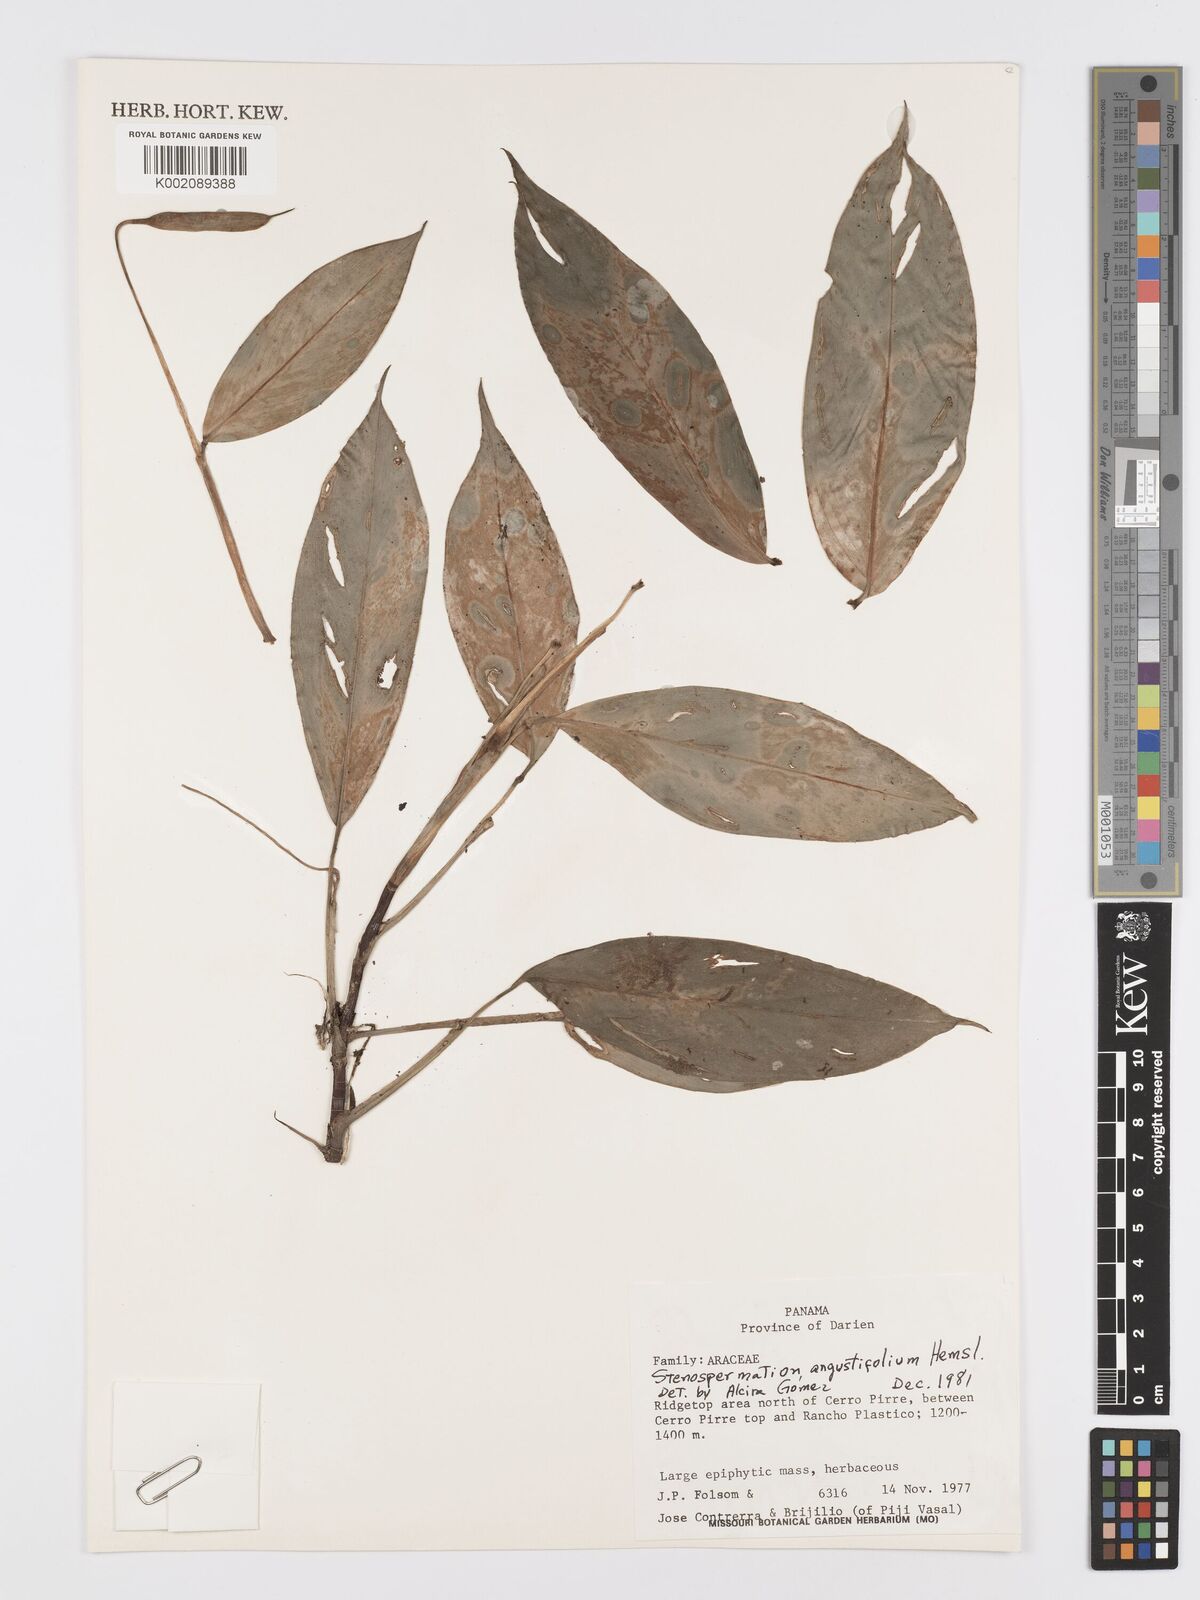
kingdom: Plantae
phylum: Tracheophyta
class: Liliopsida
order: Alismatales
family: Araceae
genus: Stenospermation
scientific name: Stenospermation angustifolium
